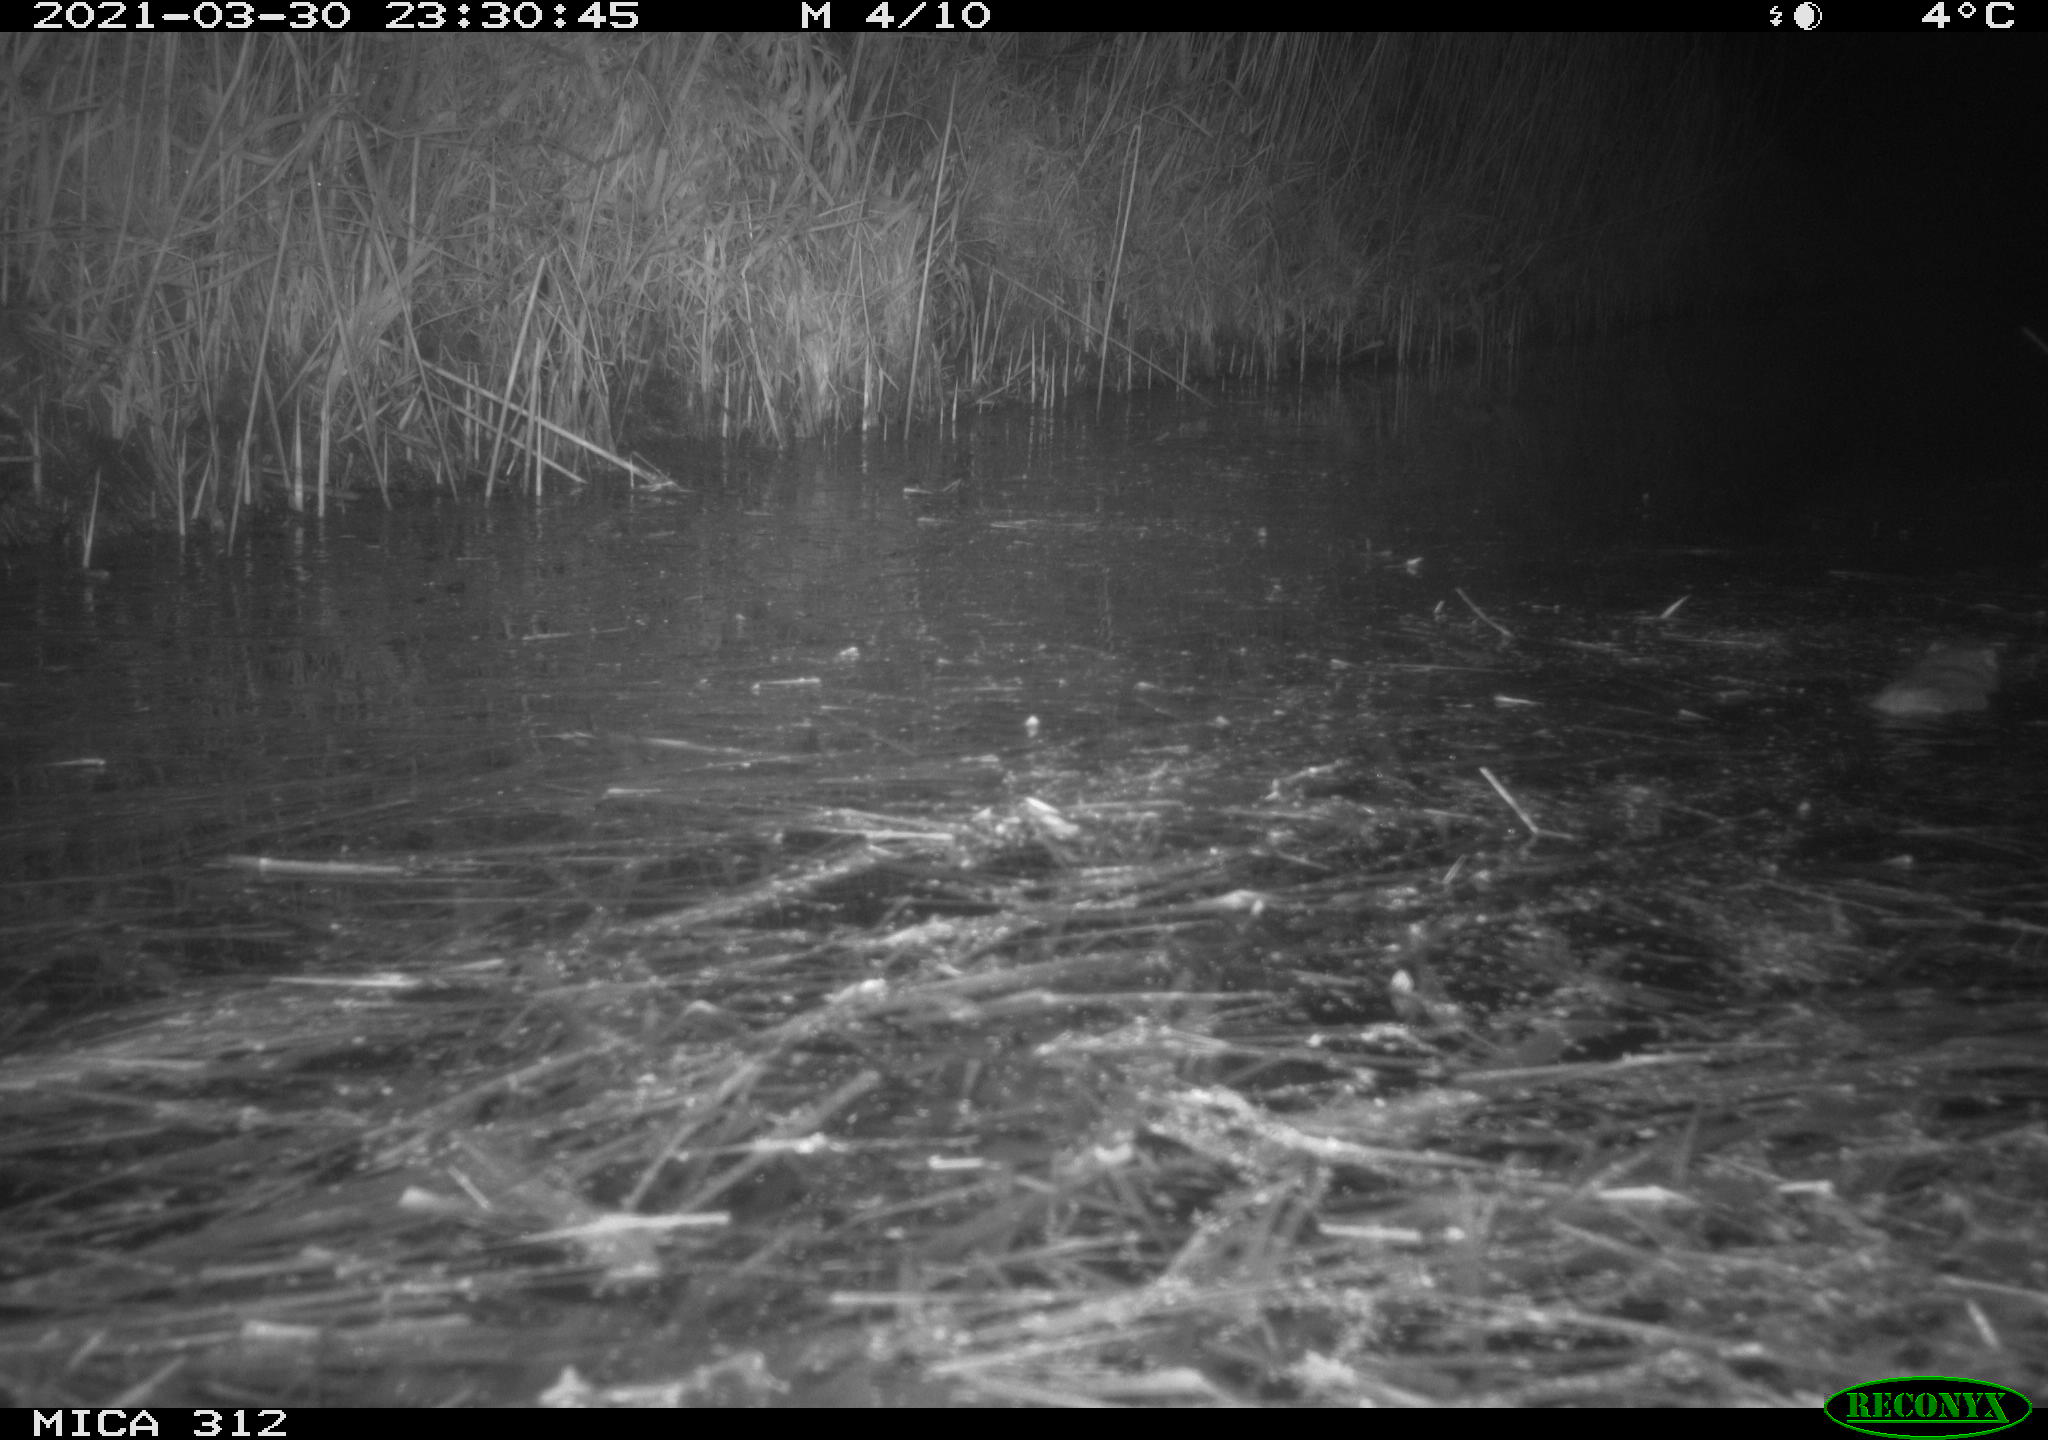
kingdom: Animalia
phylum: Chordata
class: Mammalia
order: Rodentia
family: Cricetidae
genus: Ondatra
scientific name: Ondatra zibethicus
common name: Muskrat
